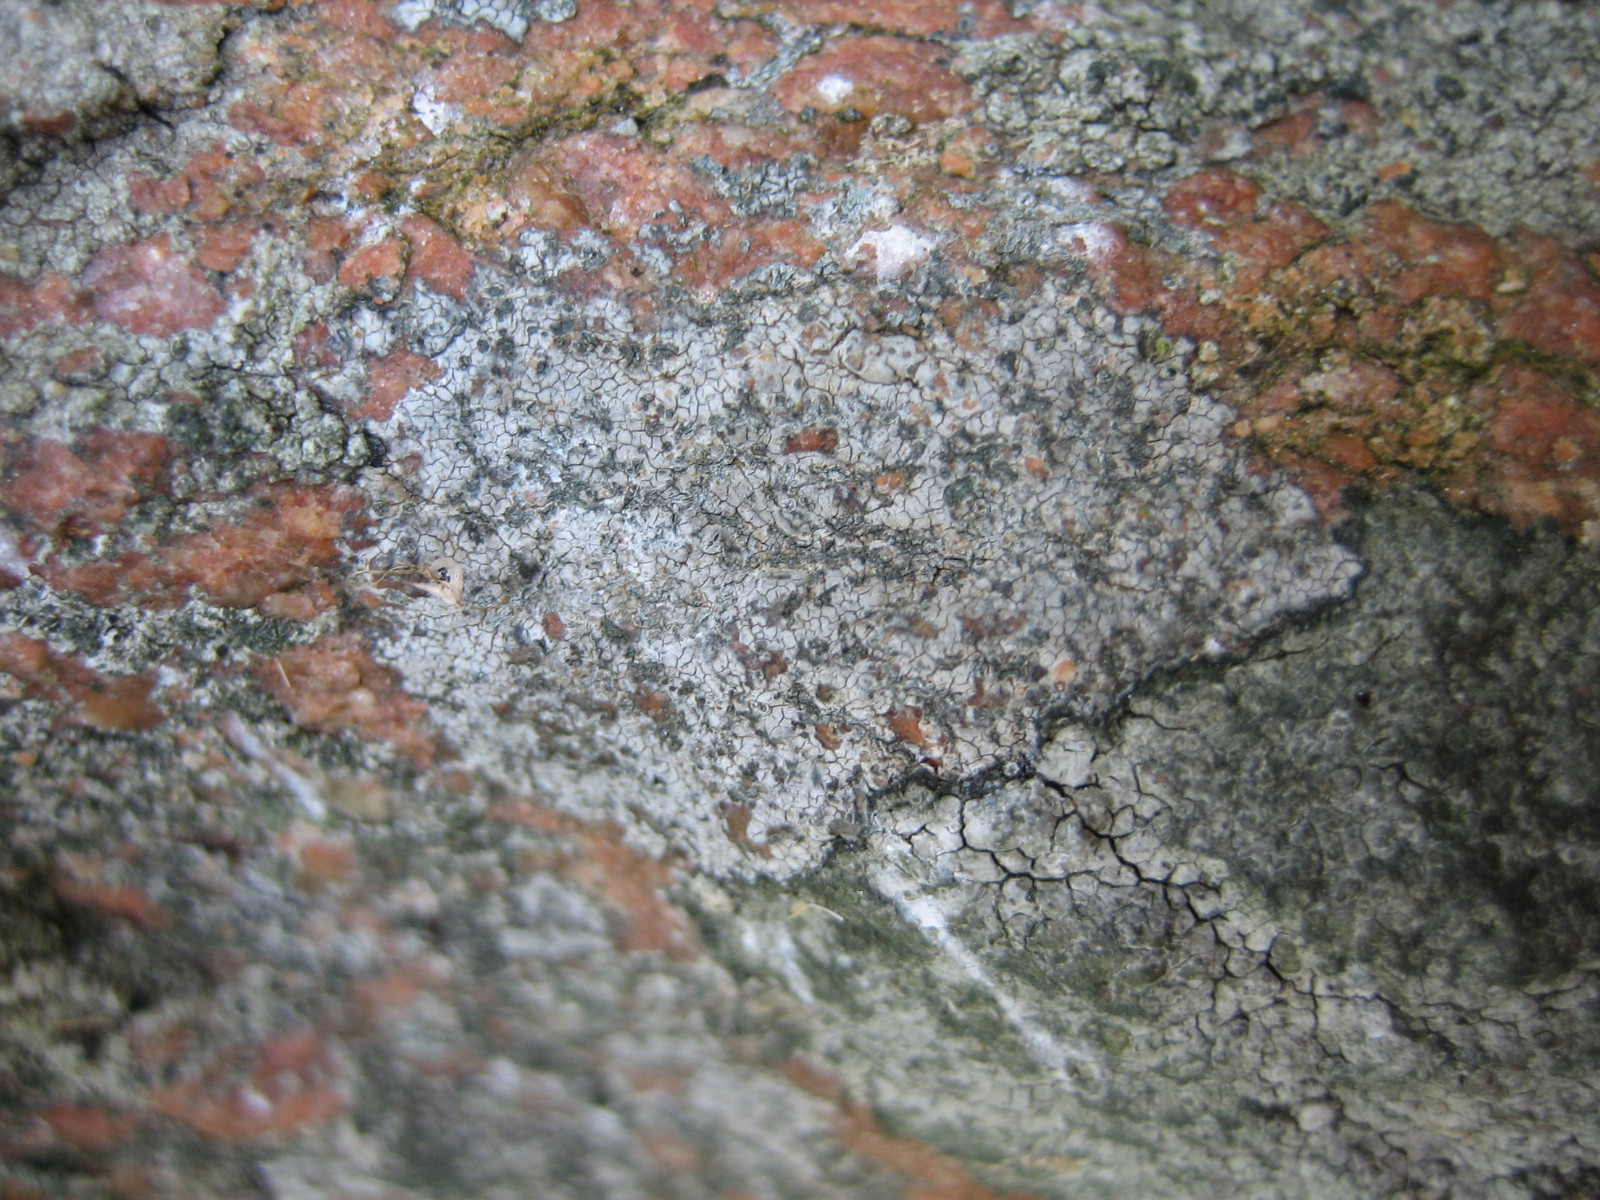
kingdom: Fungi
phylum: Ascomycota
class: Lecanoromycetes
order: Lecideales
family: Lecideaceae
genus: Porpidia
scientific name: Porpidia soredizodes
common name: sortkornet bredskivelav
